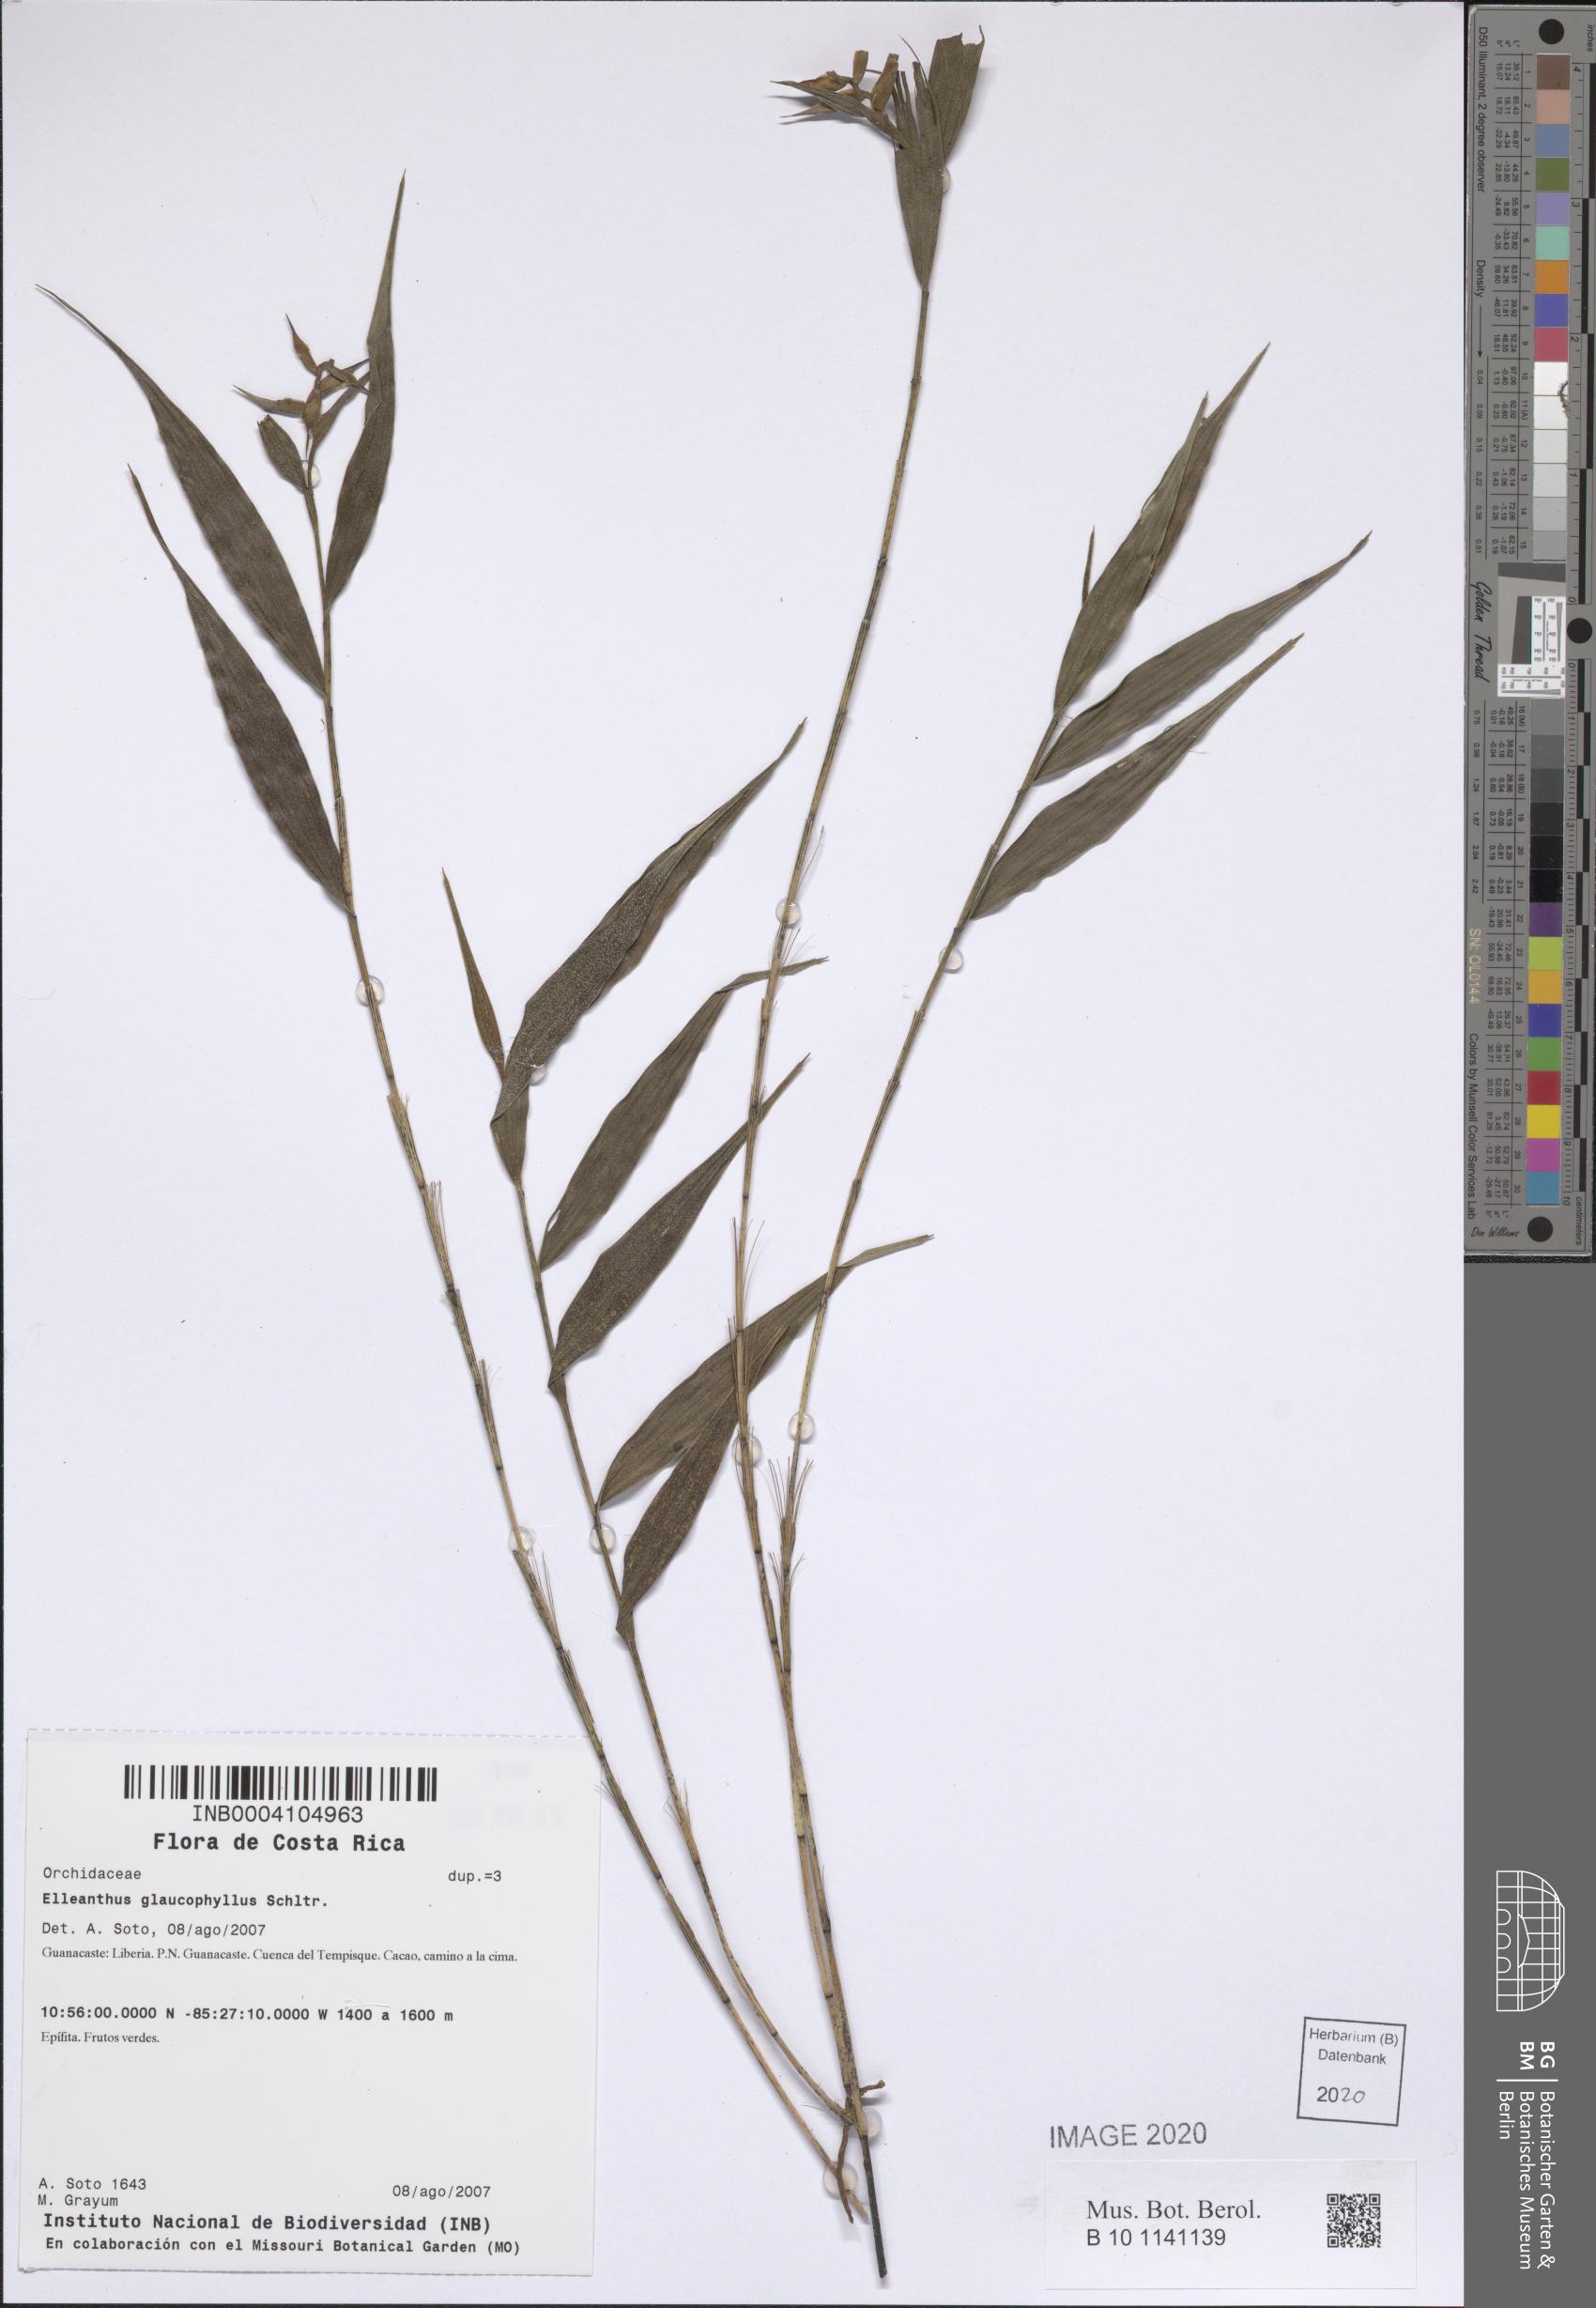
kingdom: Plantae
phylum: Tracheophyta
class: Liliopsida
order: Asparagales
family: Orchidaceae
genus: Elleanthus
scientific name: Elleanthus glaucophyllus
